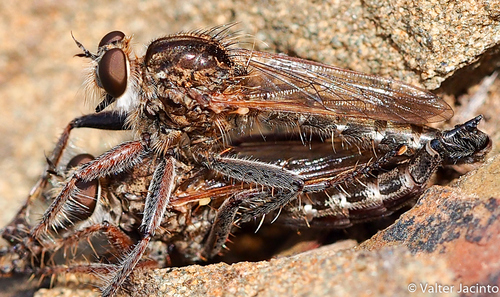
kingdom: Animalia
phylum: Arthropoda
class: Insecta
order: Diptera
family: Asilidae
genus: Epitriptus
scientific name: Epitriptus inconstans
